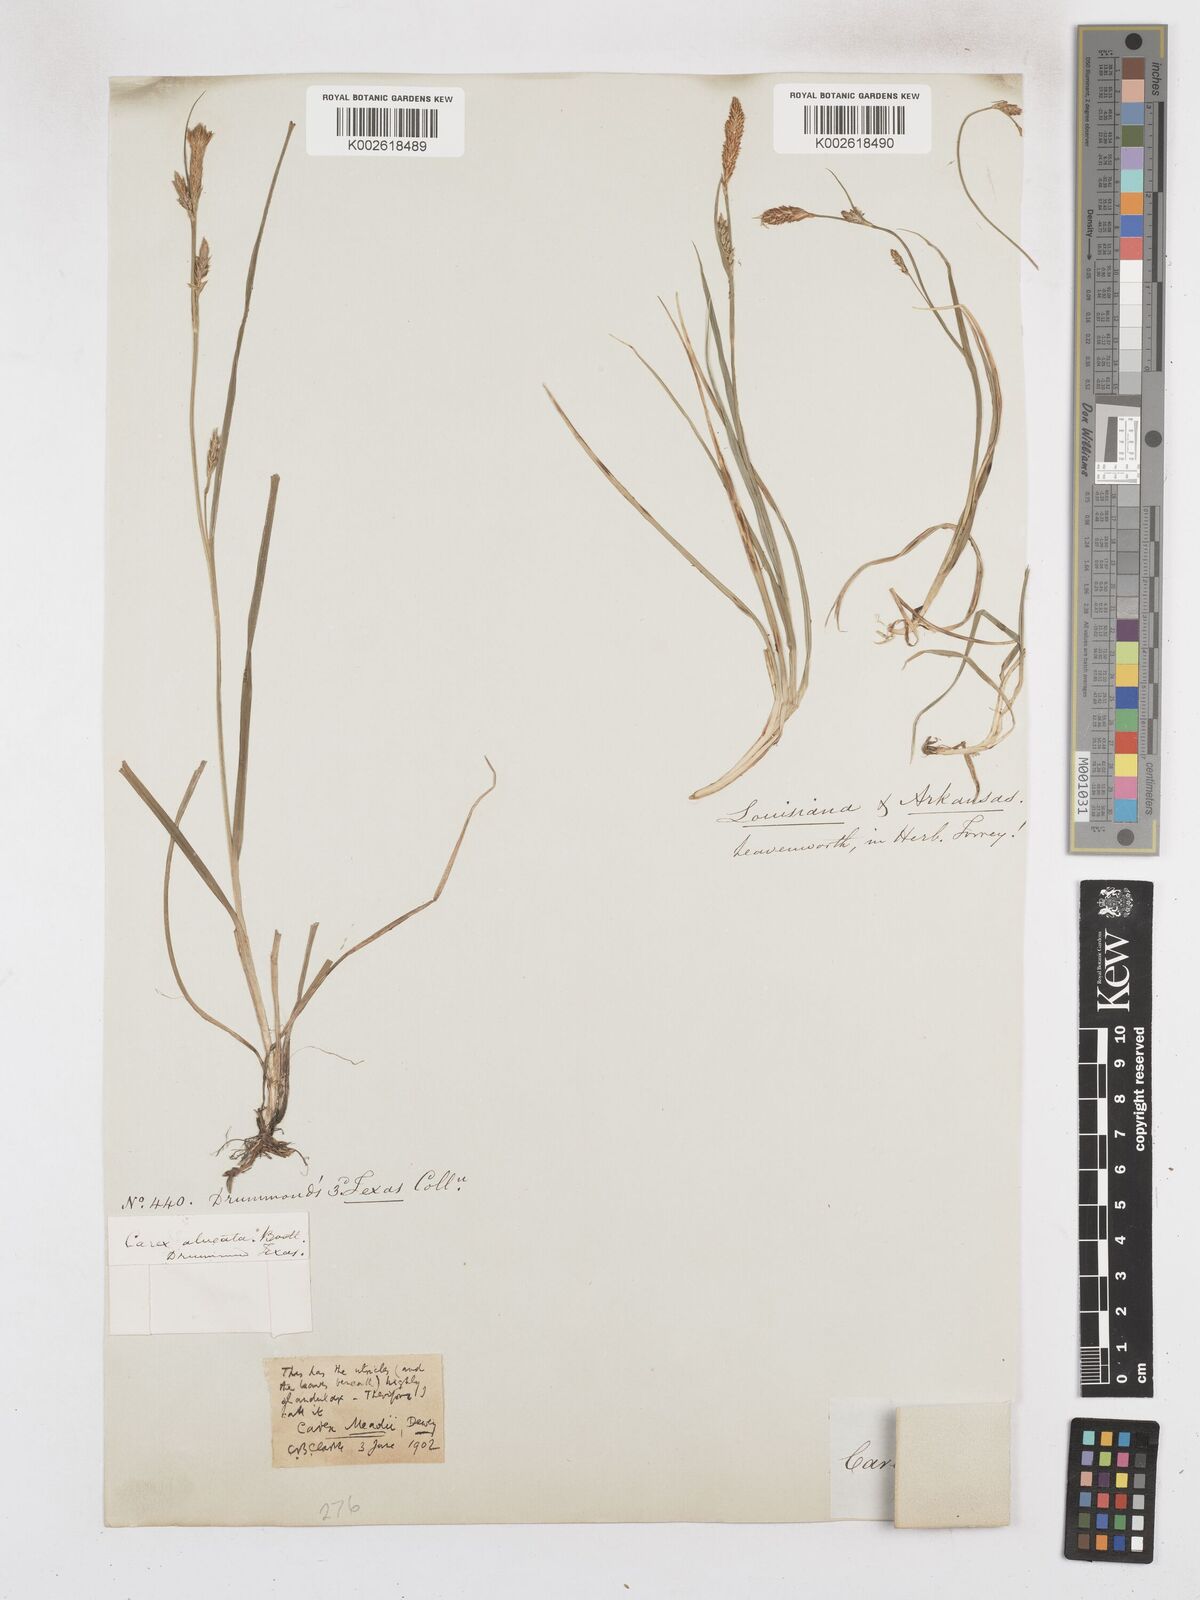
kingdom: Plantae
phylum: Tracheophyta
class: Liliopsida
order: Poales
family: Cyperaceae
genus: Carex
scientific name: Carex meadii
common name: Mead's sedge
